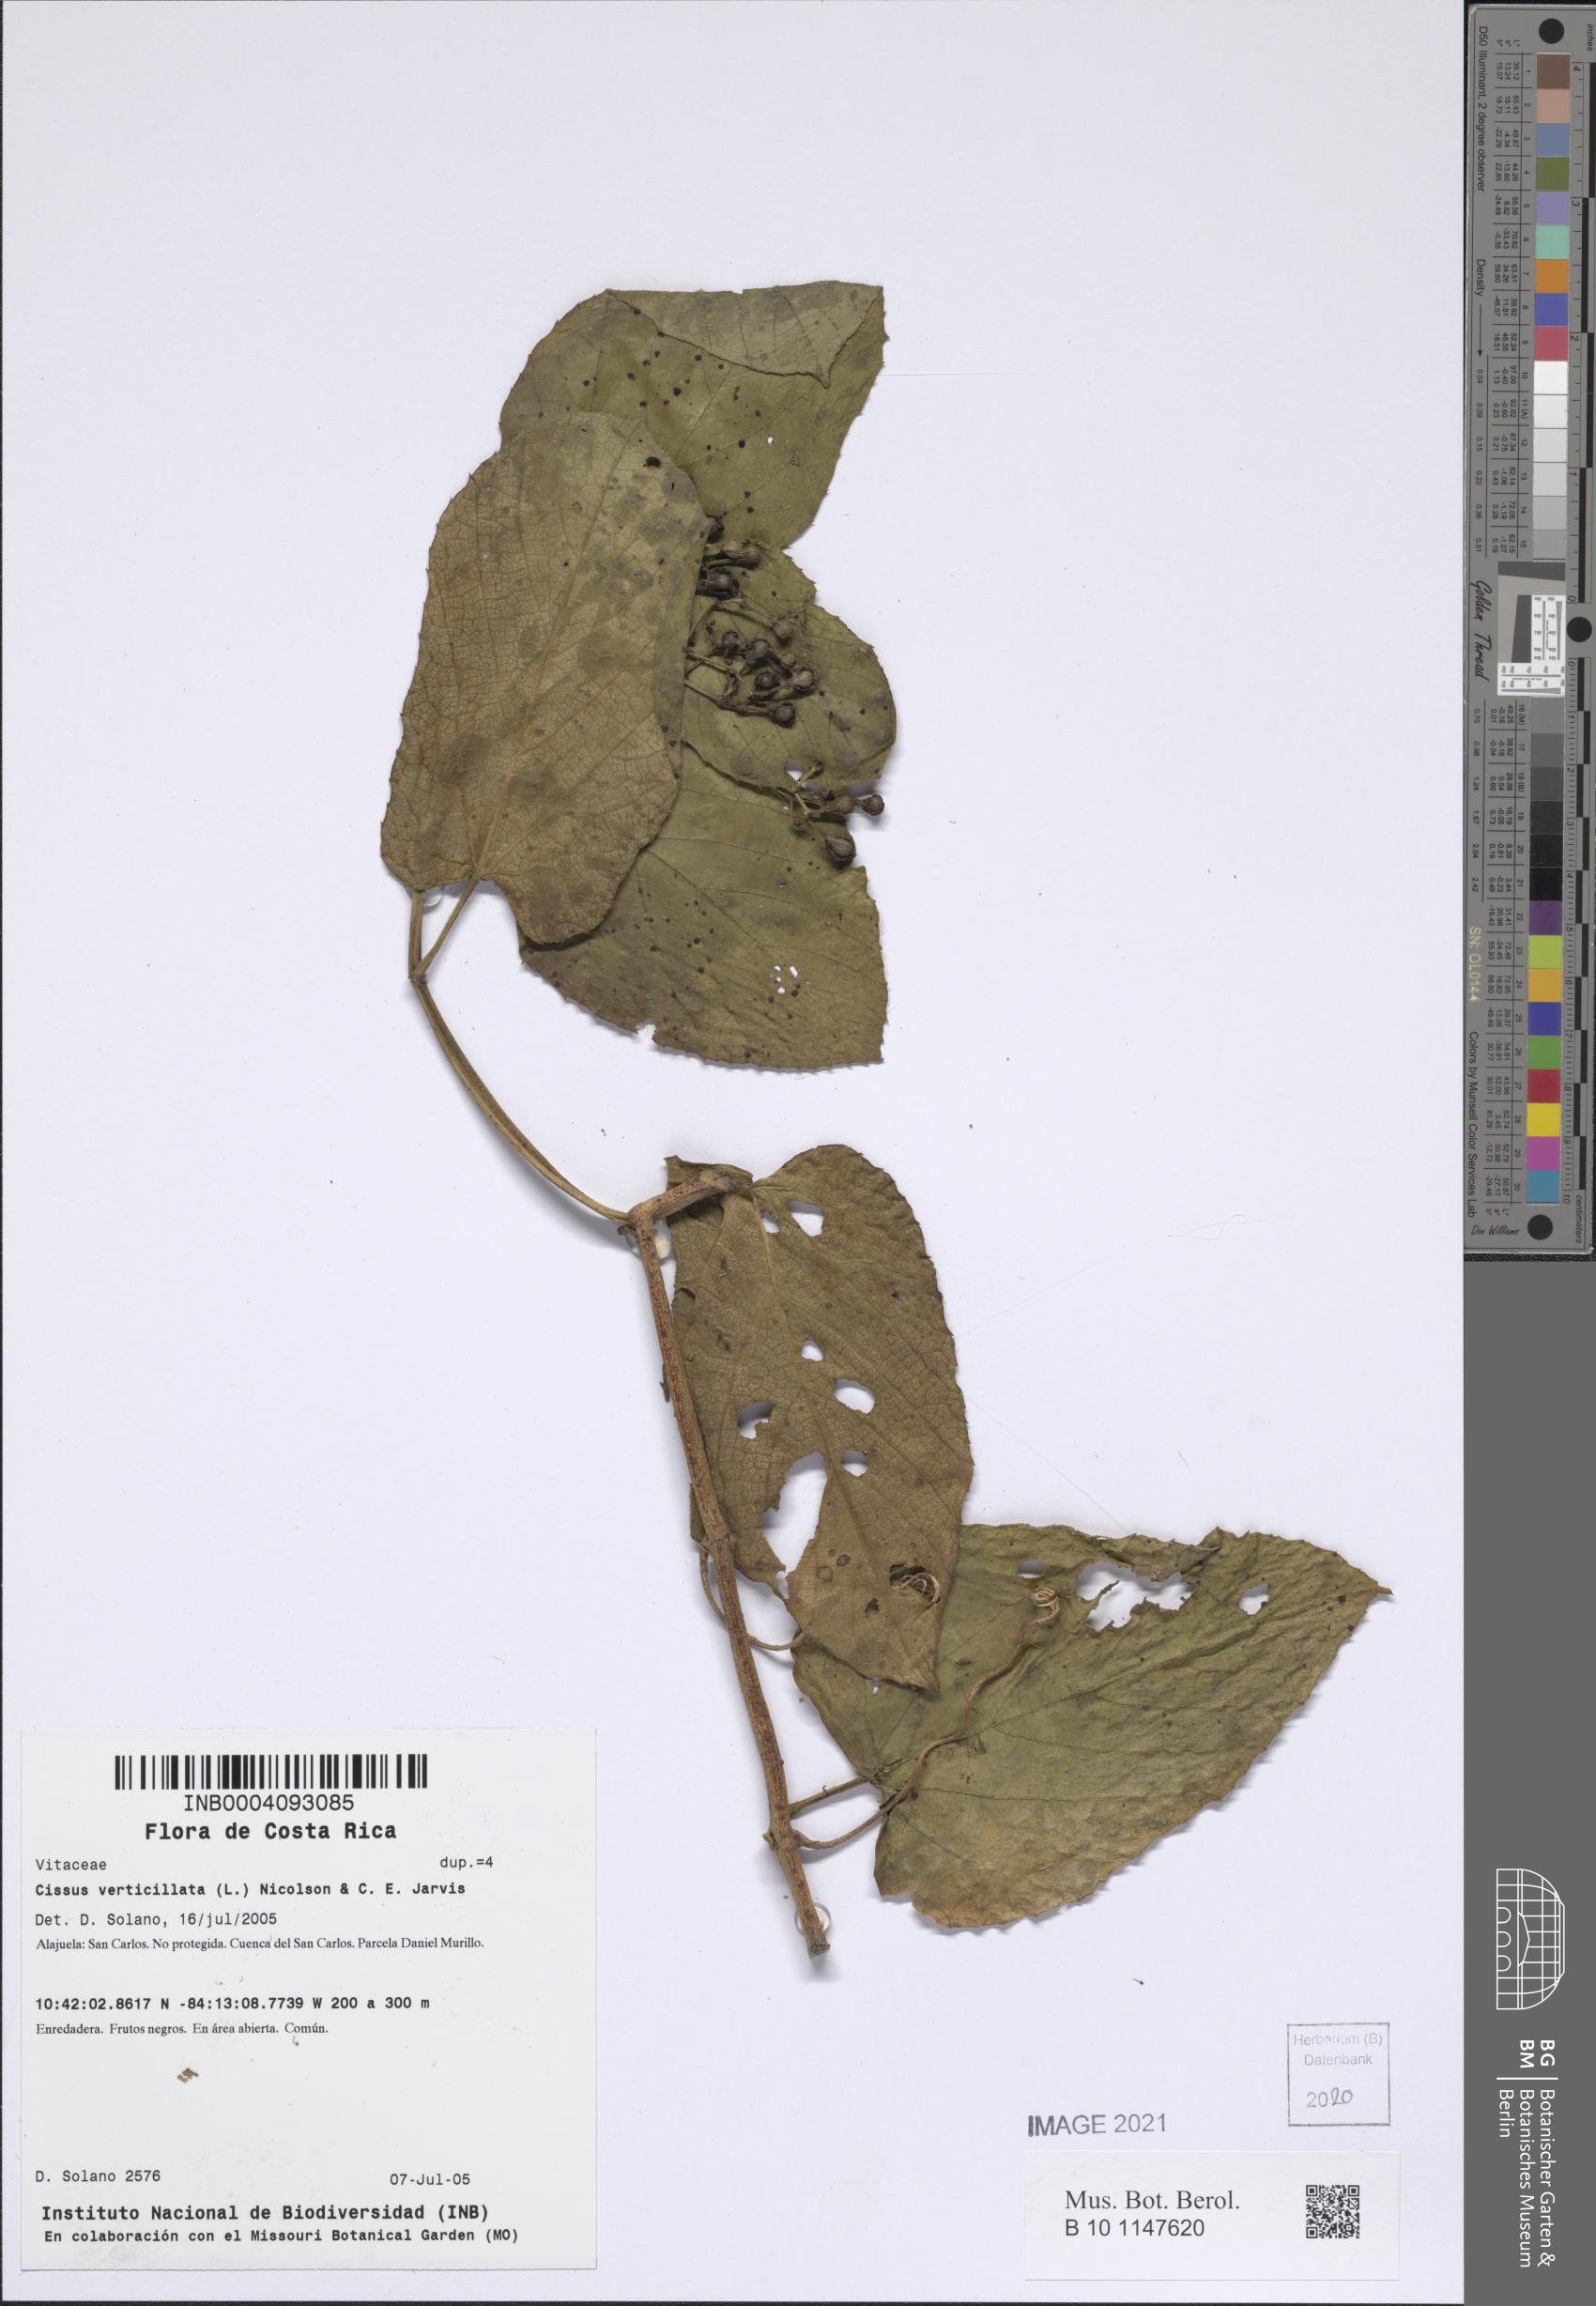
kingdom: Plantae
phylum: Tracheophyta
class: Magnoliopsida
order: Vitales
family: Vitaceae
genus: Cissus
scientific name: Cissus verticillata
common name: Princess vine
